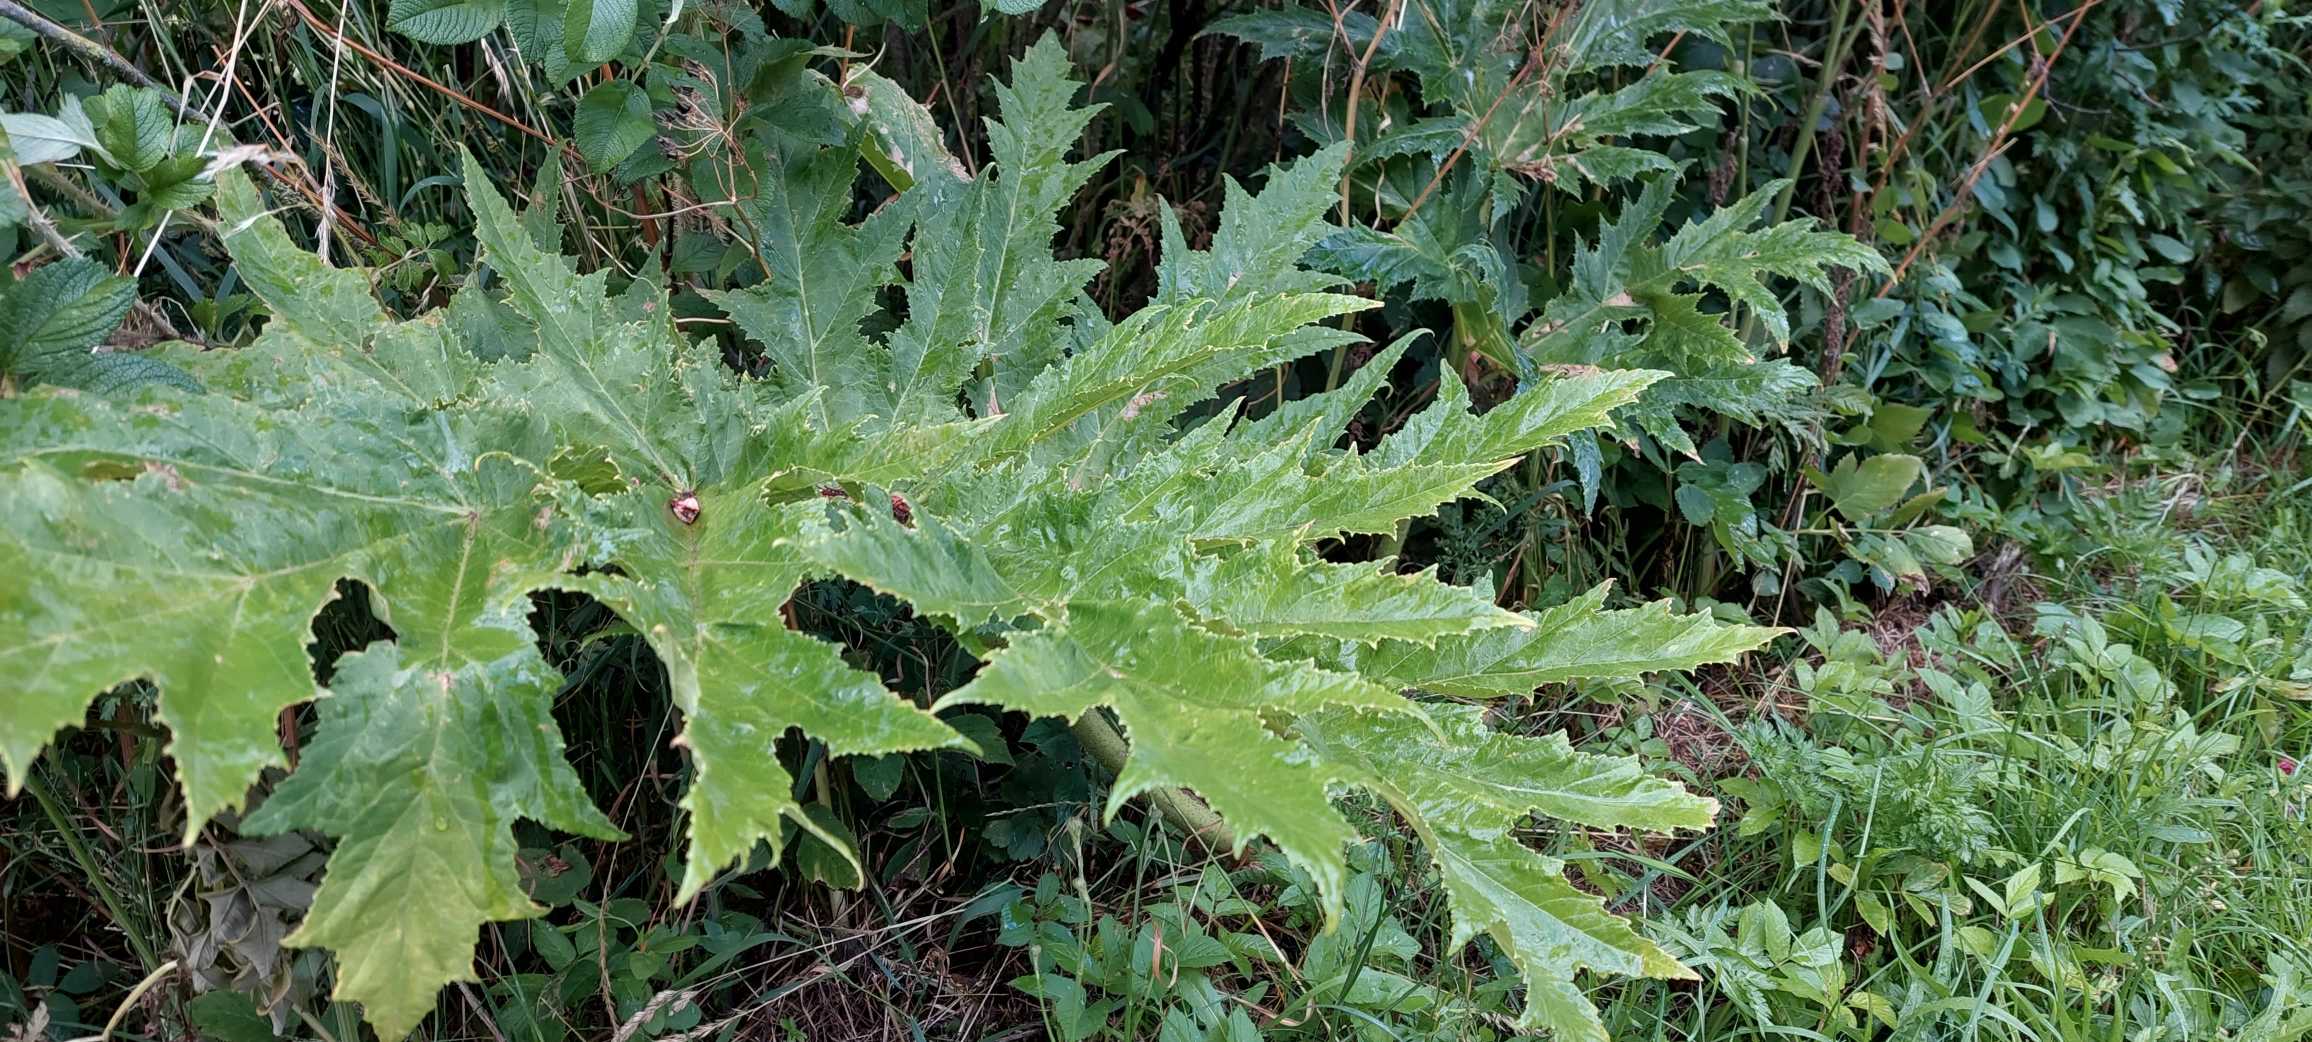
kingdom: Plantae
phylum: Tracheophyta
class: Magnoliopsida
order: Apiales
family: Apiaceae
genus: Heracleum
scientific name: Heracleum mantegazzianum
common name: Kæmpe-bjørneklo
